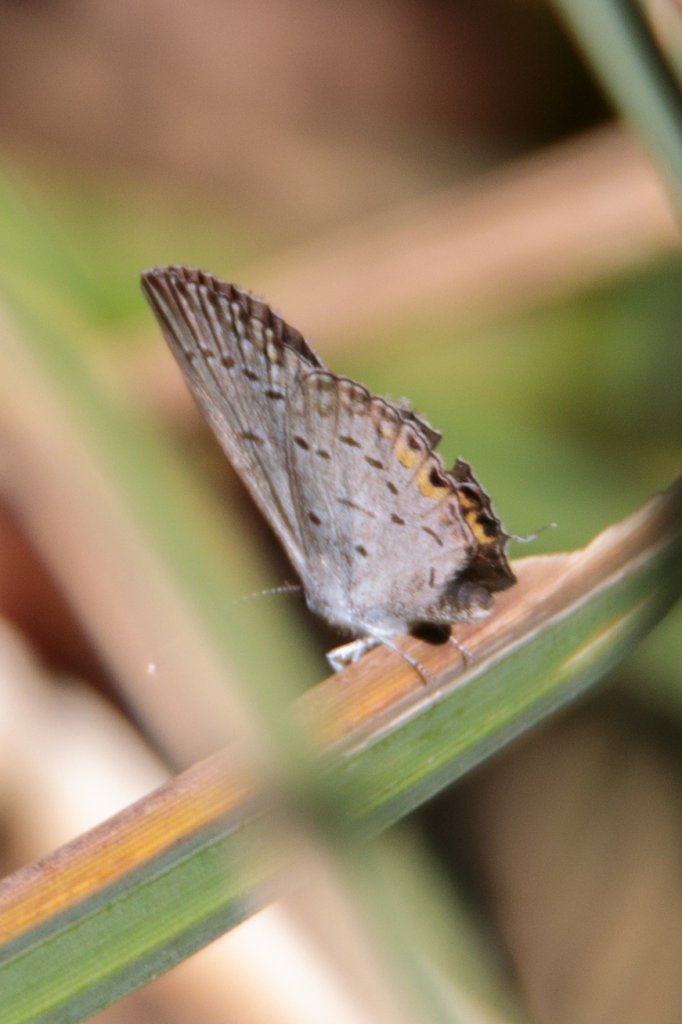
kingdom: Animalia
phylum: Arthropoda
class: Insecta
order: Lepidoptera
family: Lycaenidae
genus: Elkalyce
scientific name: Elkalyce comyntas
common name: Eastern Tailed-Blue
